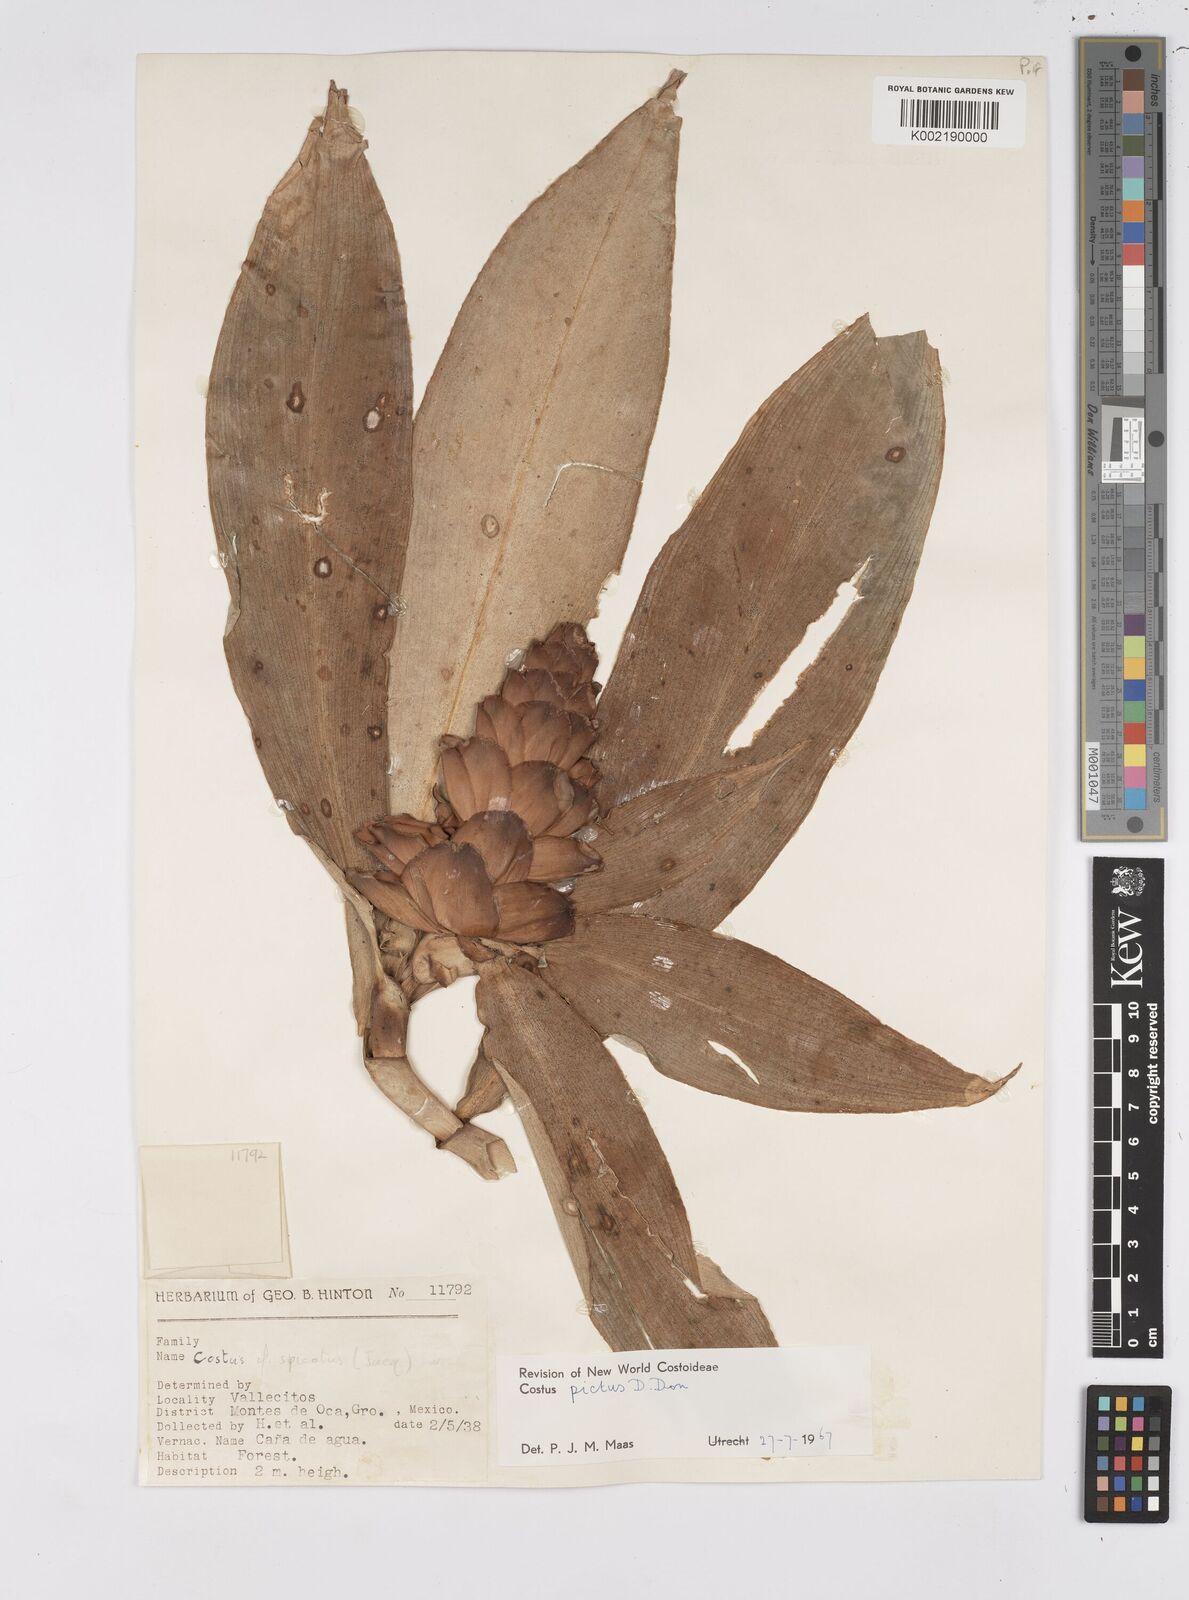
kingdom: Plantae
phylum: Tracheophyta
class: Liliopsida
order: Zingiberales
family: Costaceae
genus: Costus
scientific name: Costus pictus
